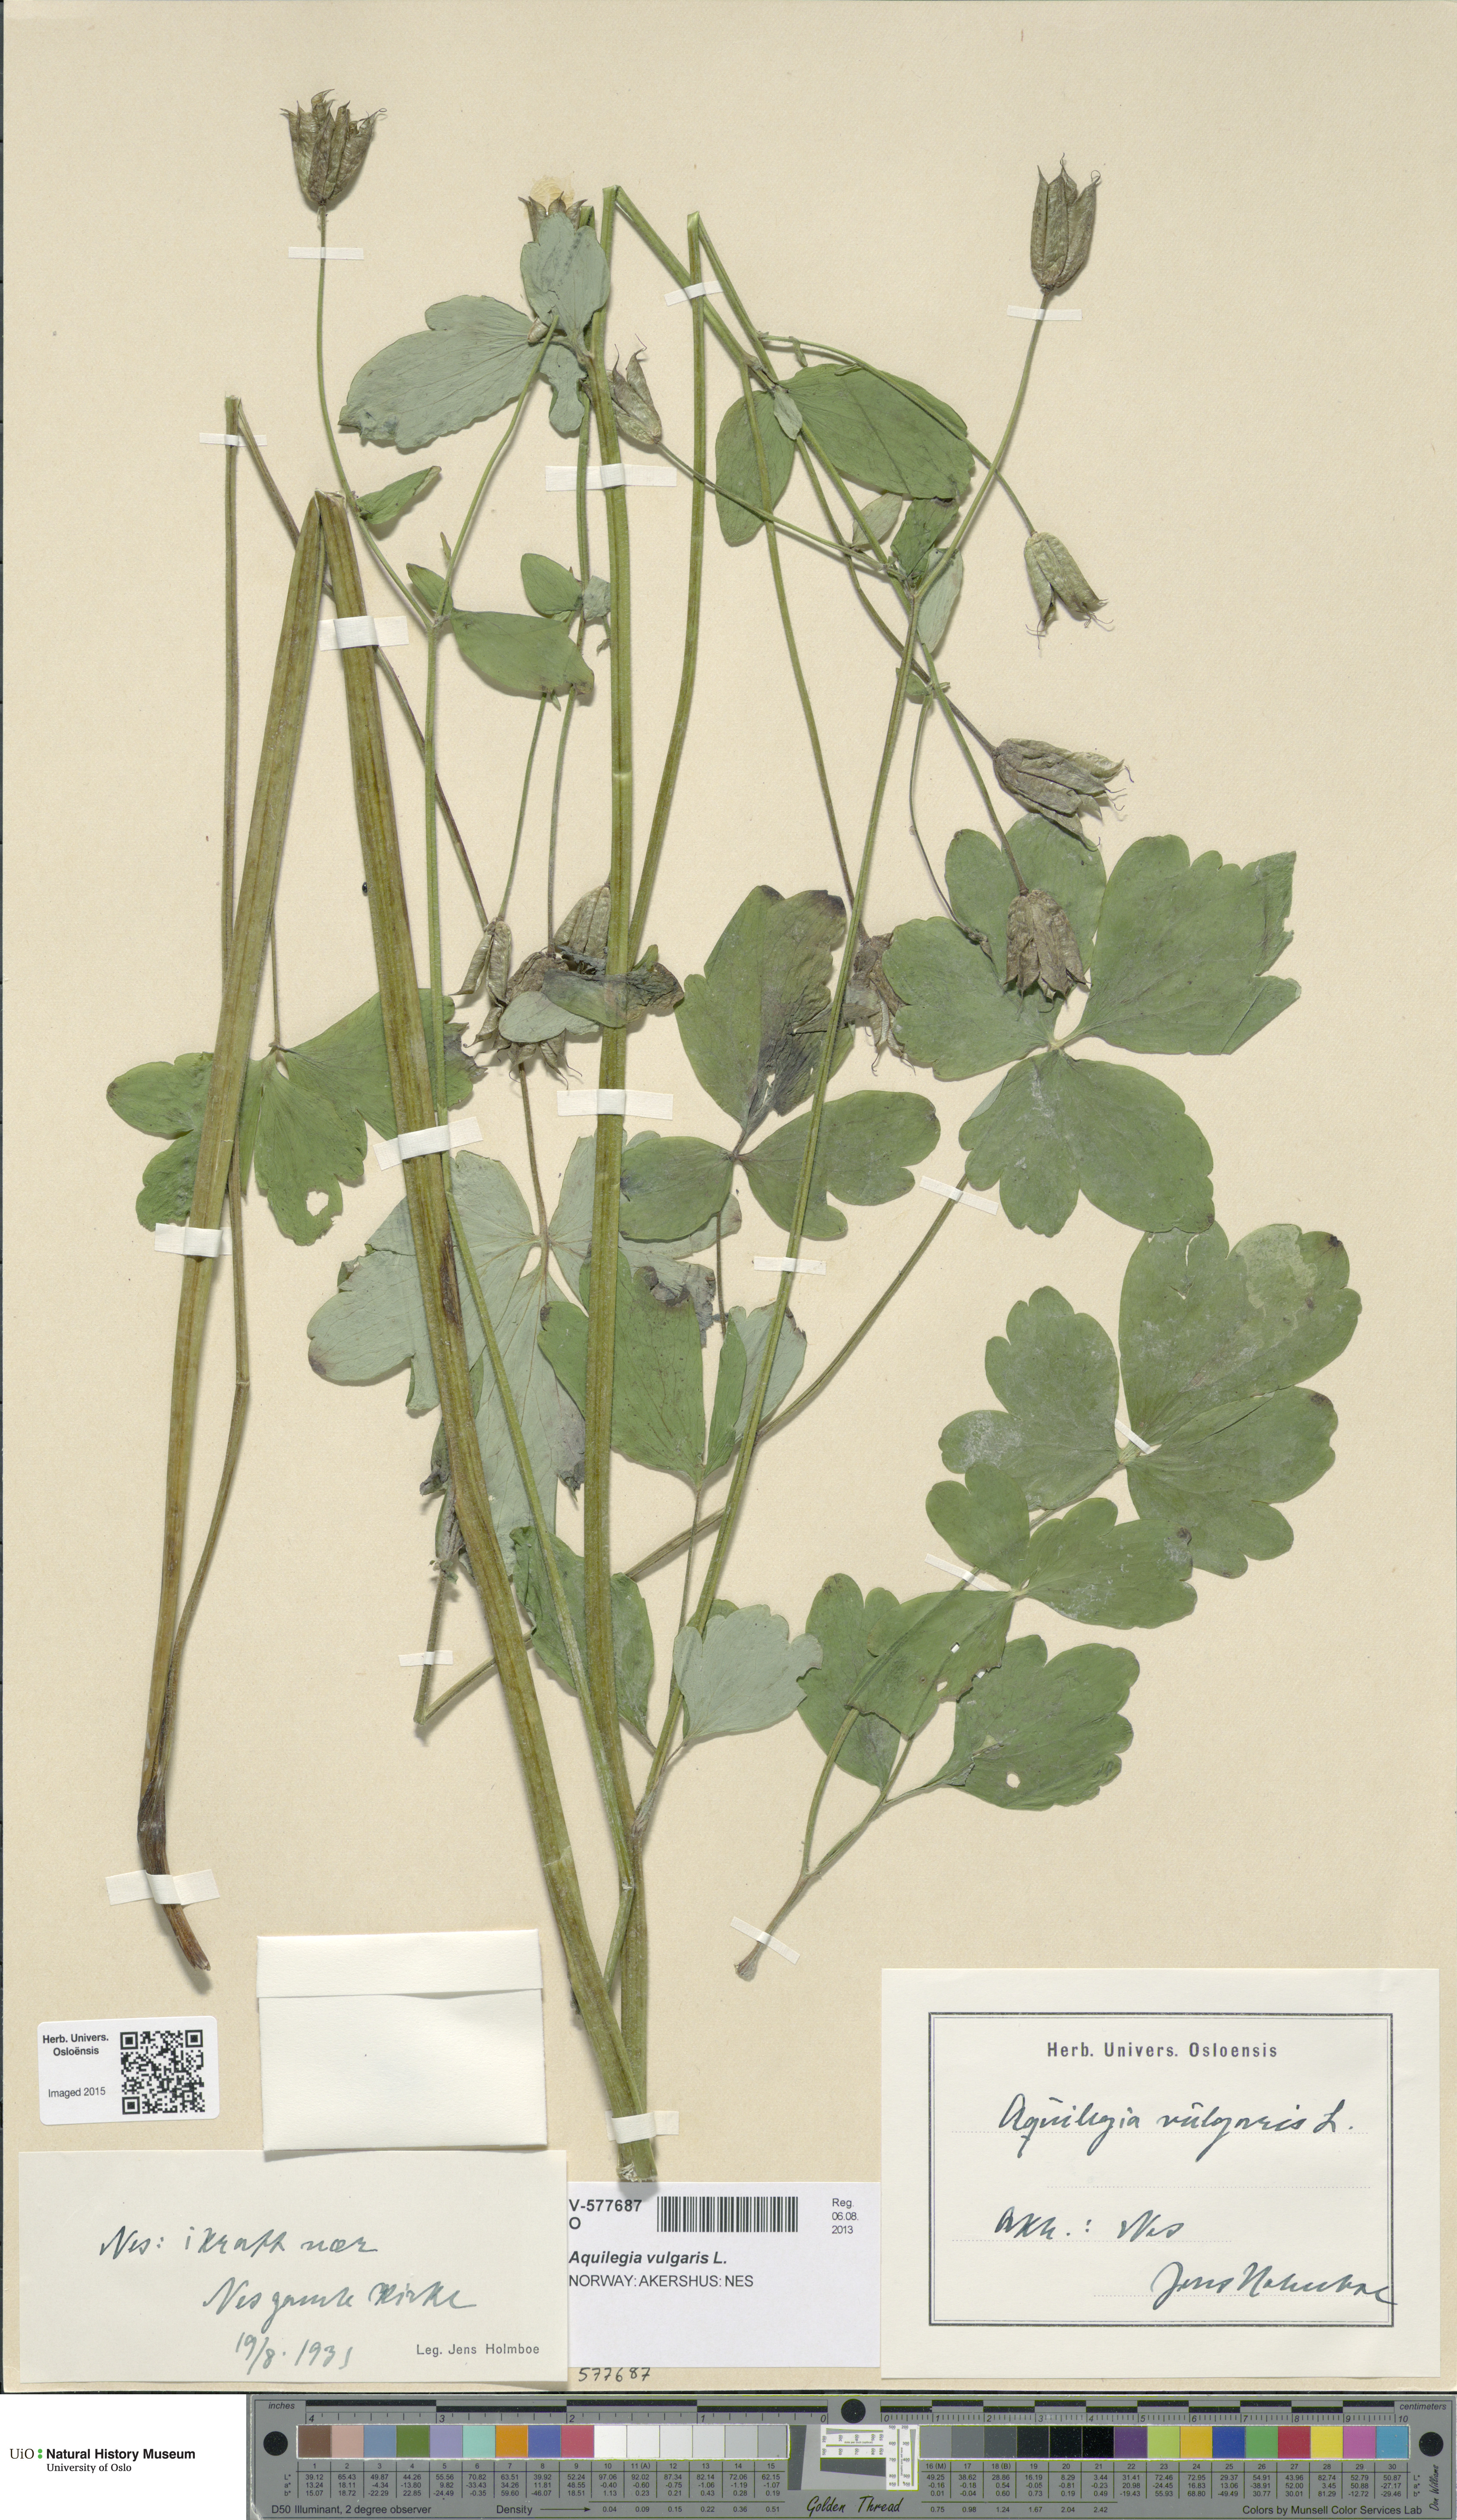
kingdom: Plantae
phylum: Tracheophyta
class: Magnoliopsida
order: Ranunculales
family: Ranunculaceae
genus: Aquilegia
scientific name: Aquilegia vulgaris
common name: Columbine
